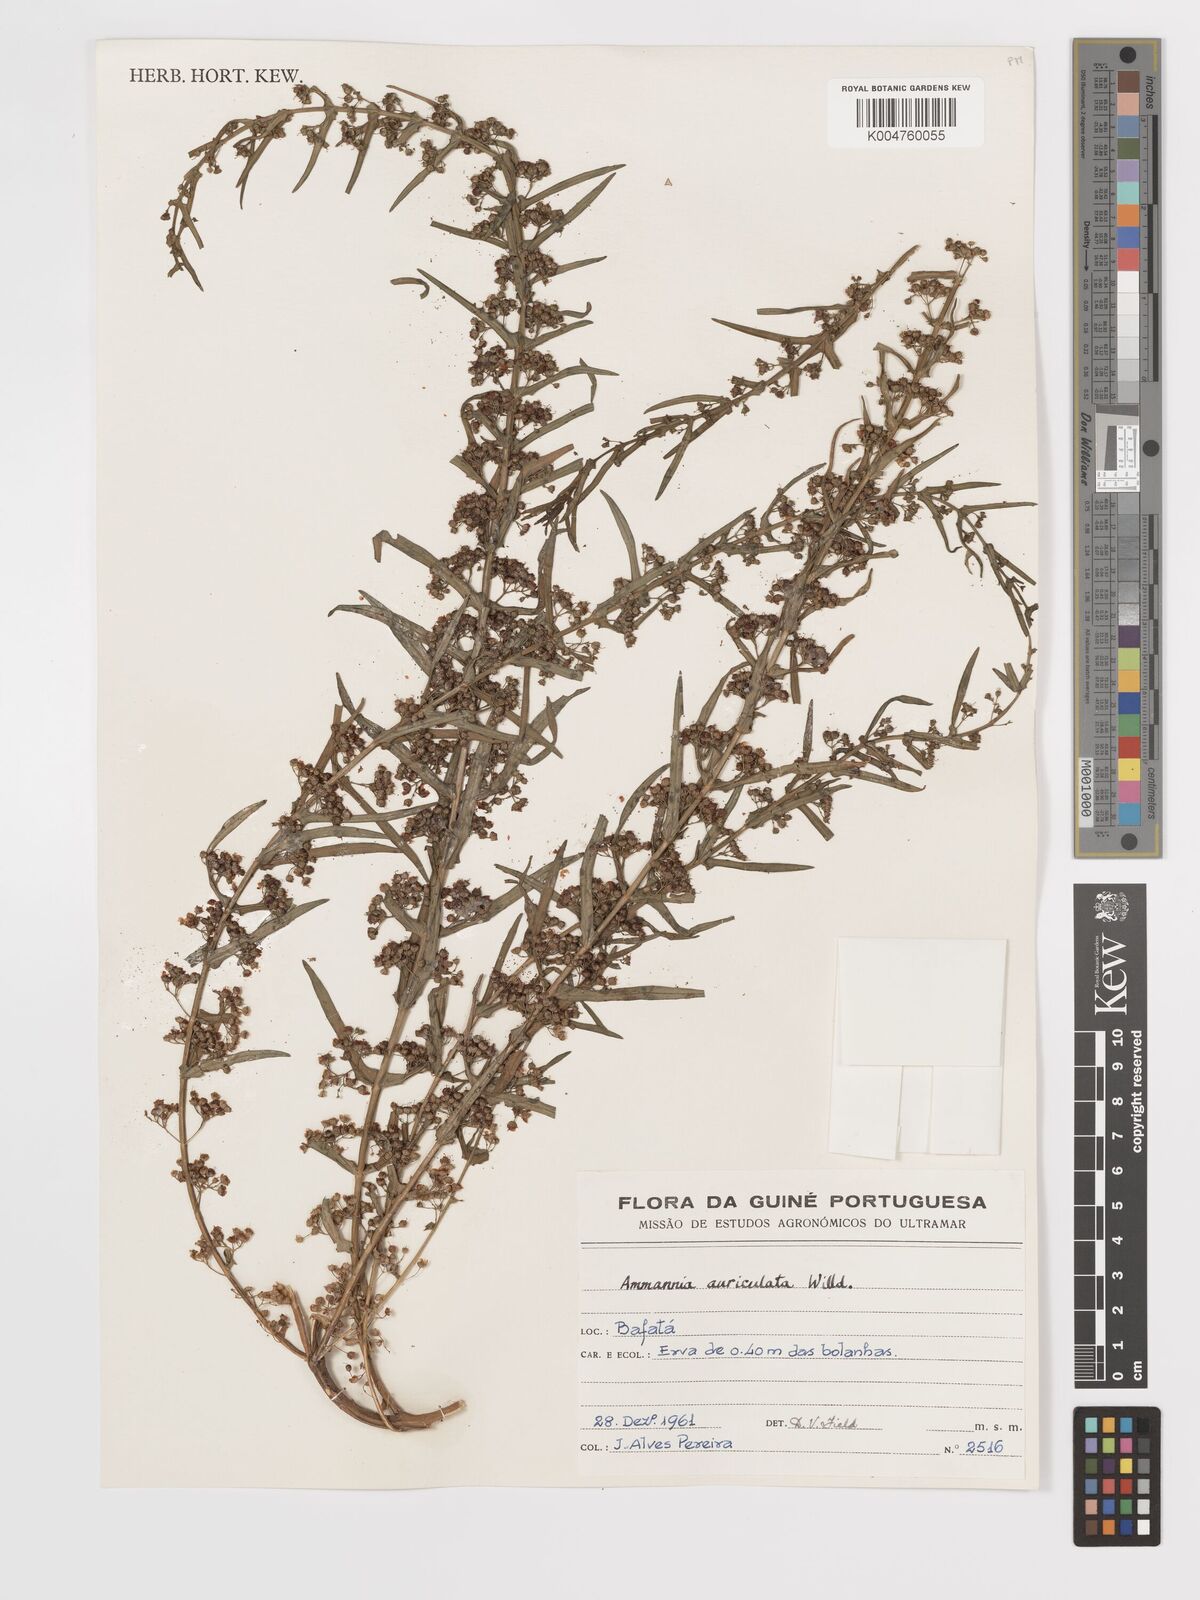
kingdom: Plantae
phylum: Tracheophyta
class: Magnoliopsida
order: Myrtales
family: Lythraceae
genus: Ammannia
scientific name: Ammannia auriculata
